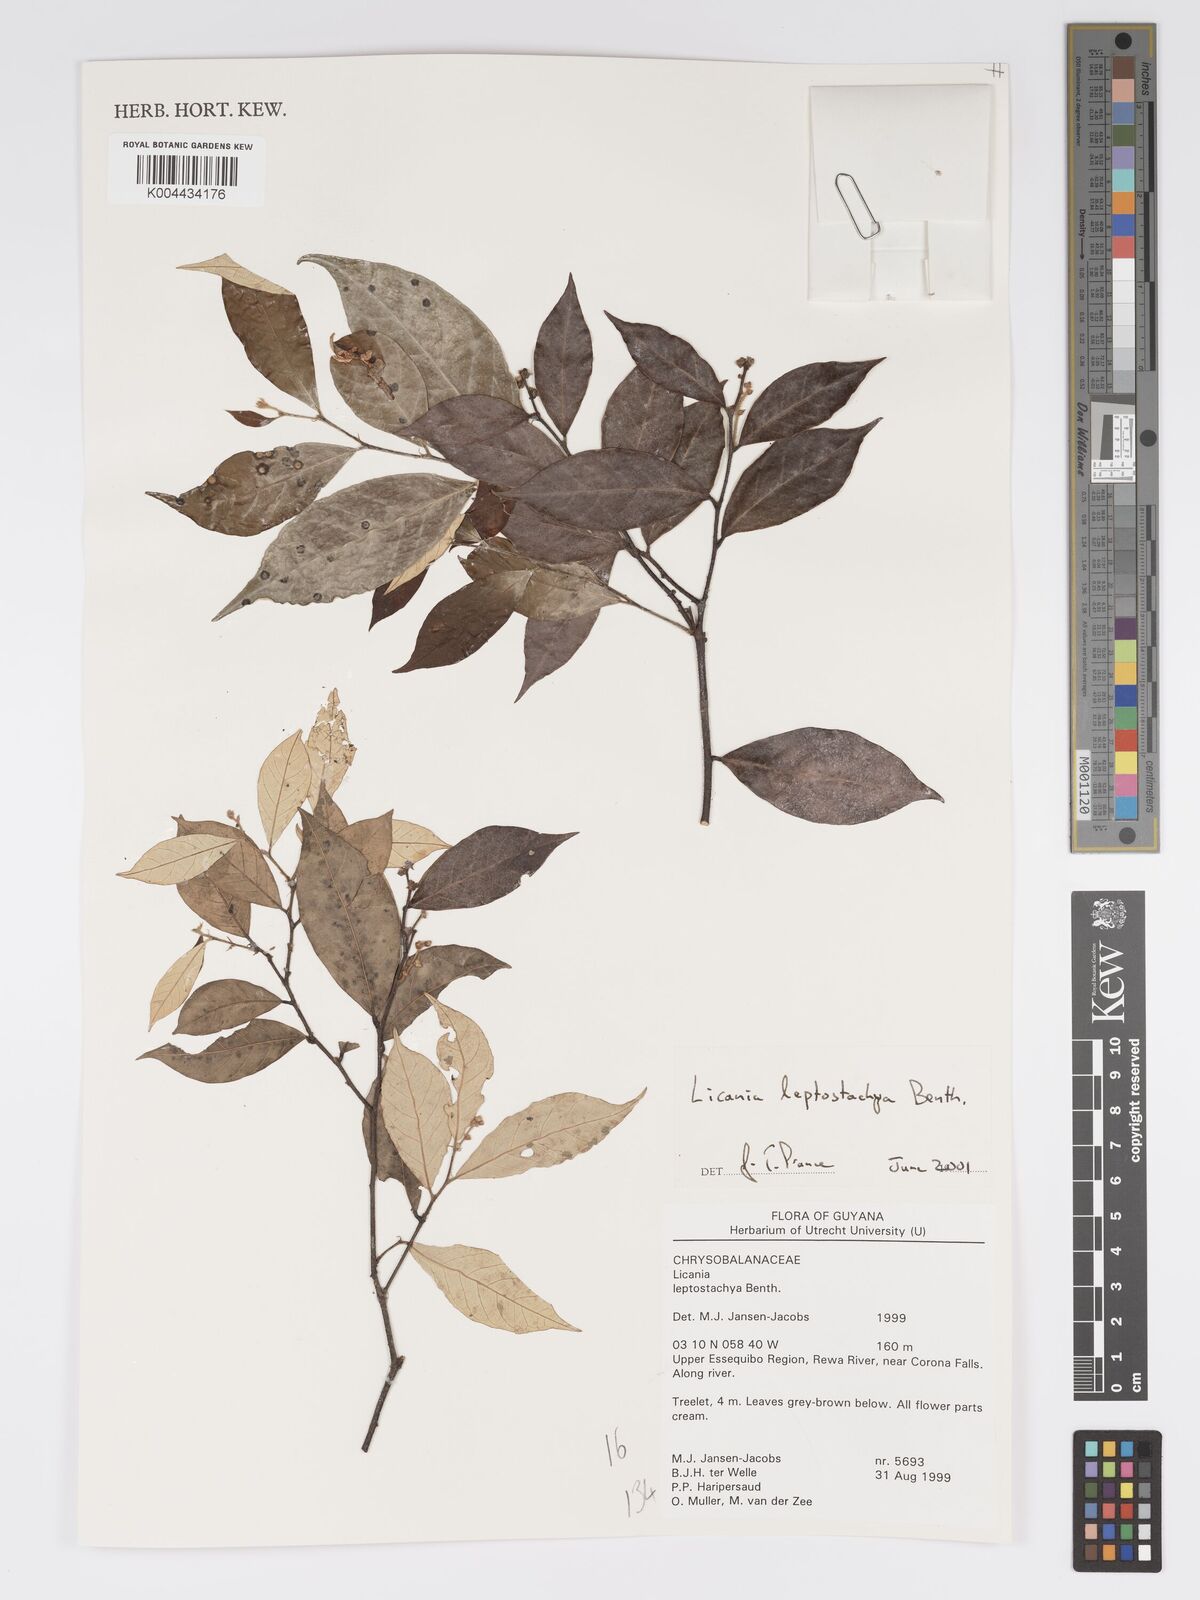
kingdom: Plantae
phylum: Tracheophyta
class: Magnoliopsida
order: Malpighiales
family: Chrysobalanaceae
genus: Licania
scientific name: Licania leptostachya
